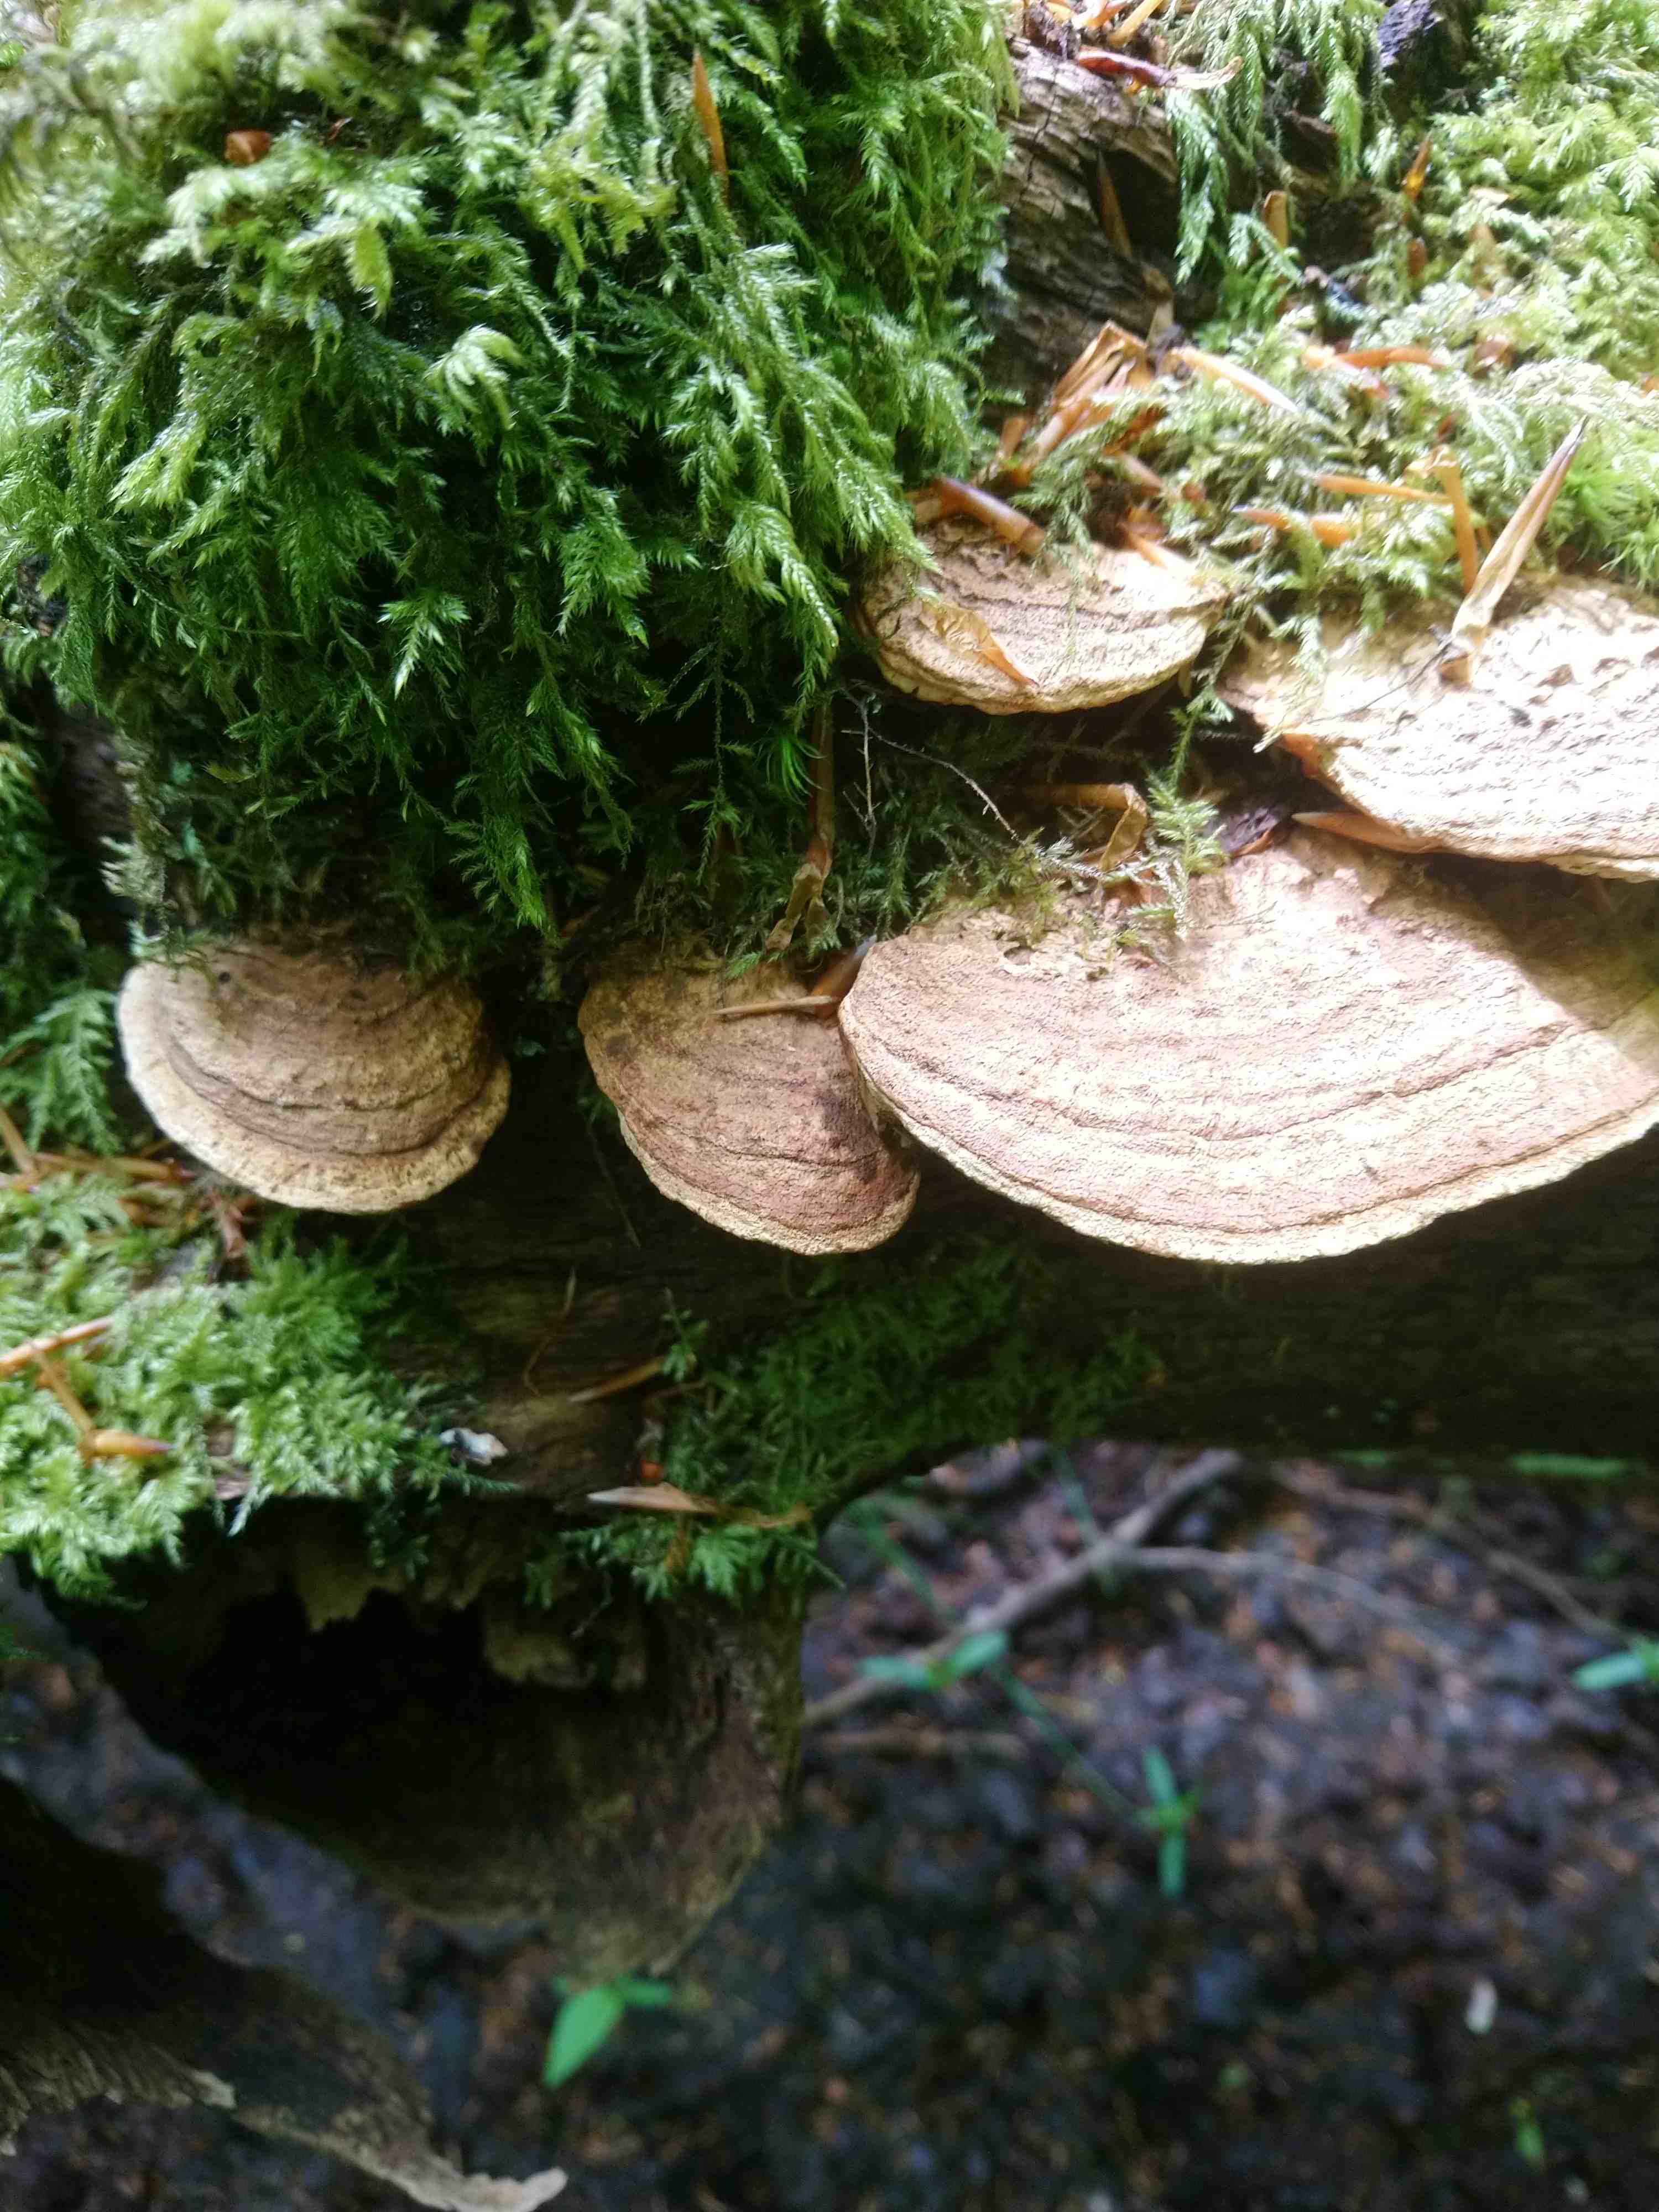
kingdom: Fungi
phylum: Basidiomycota
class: Agaricomycetes
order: Polyporales
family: Fomitopsidaceae
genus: Daedalea
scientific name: Daedalea quercina
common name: ege-labyrintsvamp
